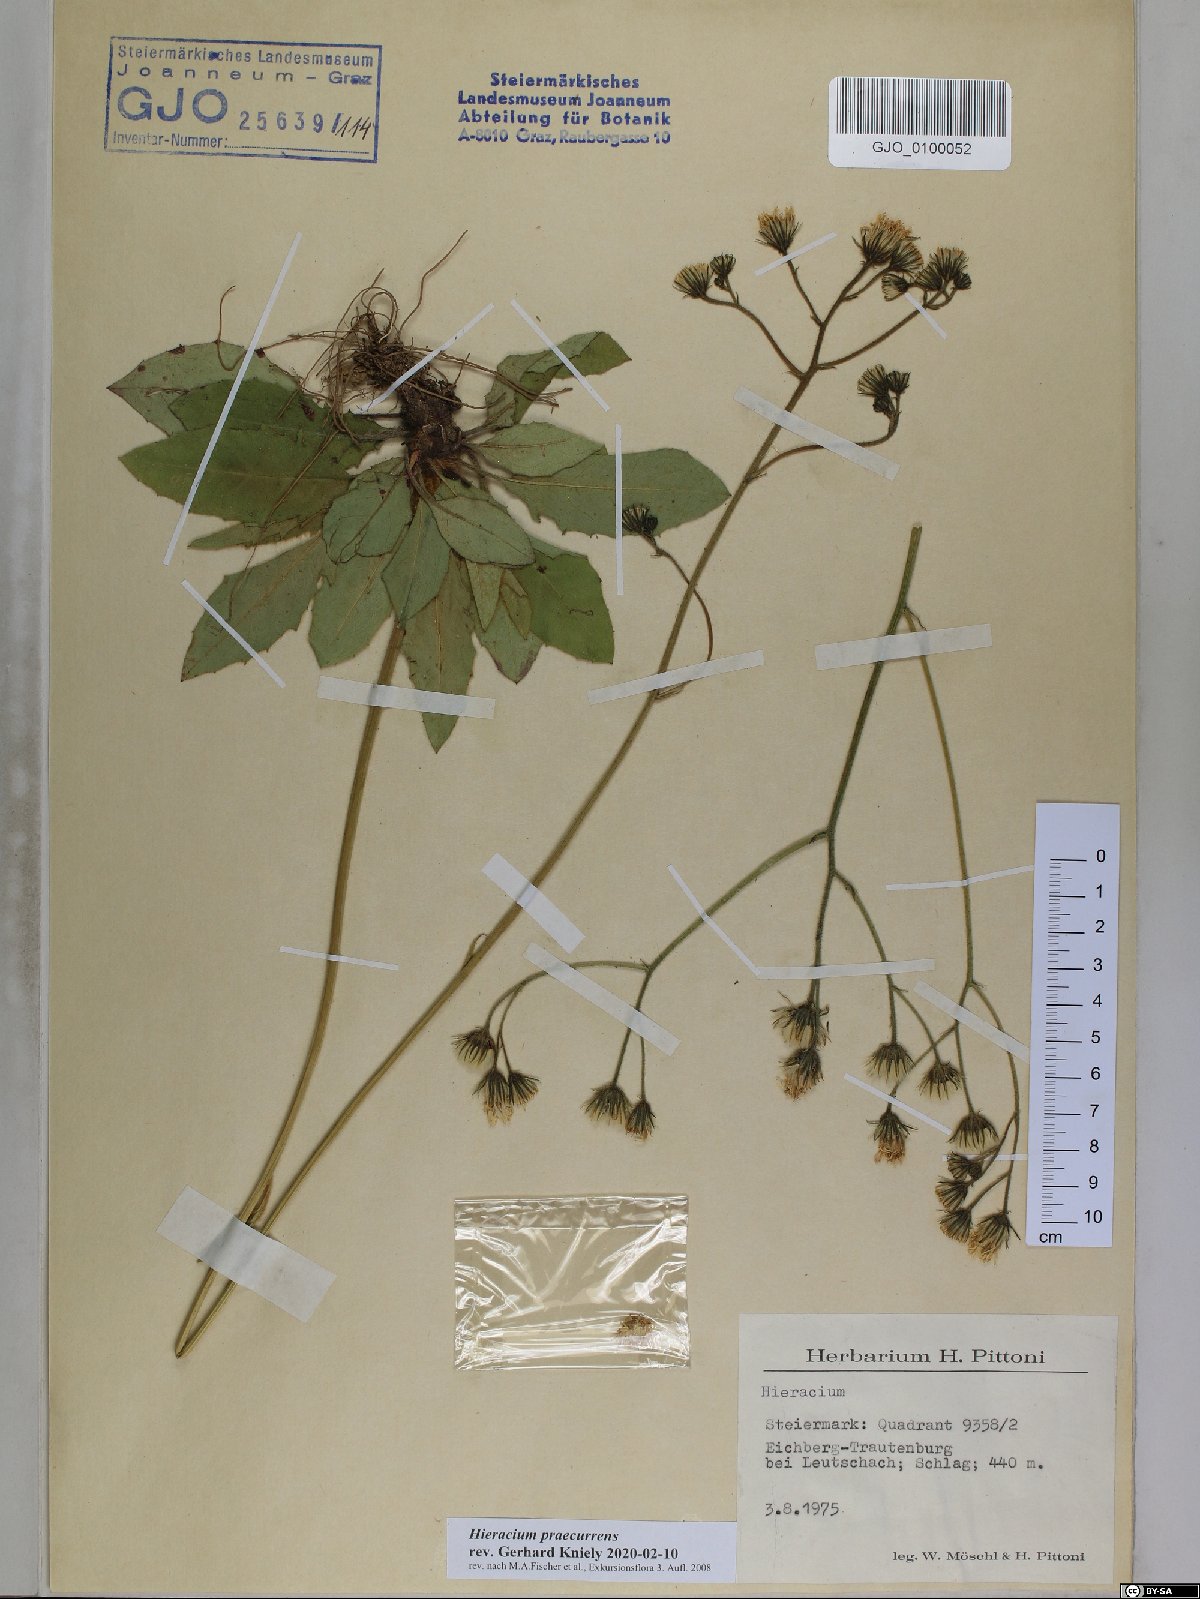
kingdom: Plantae
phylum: Tracheophyta
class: Magnoliopsida
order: Asterales
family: Asteraceae
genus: Hieracium
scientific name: Hieracium rotundatum
